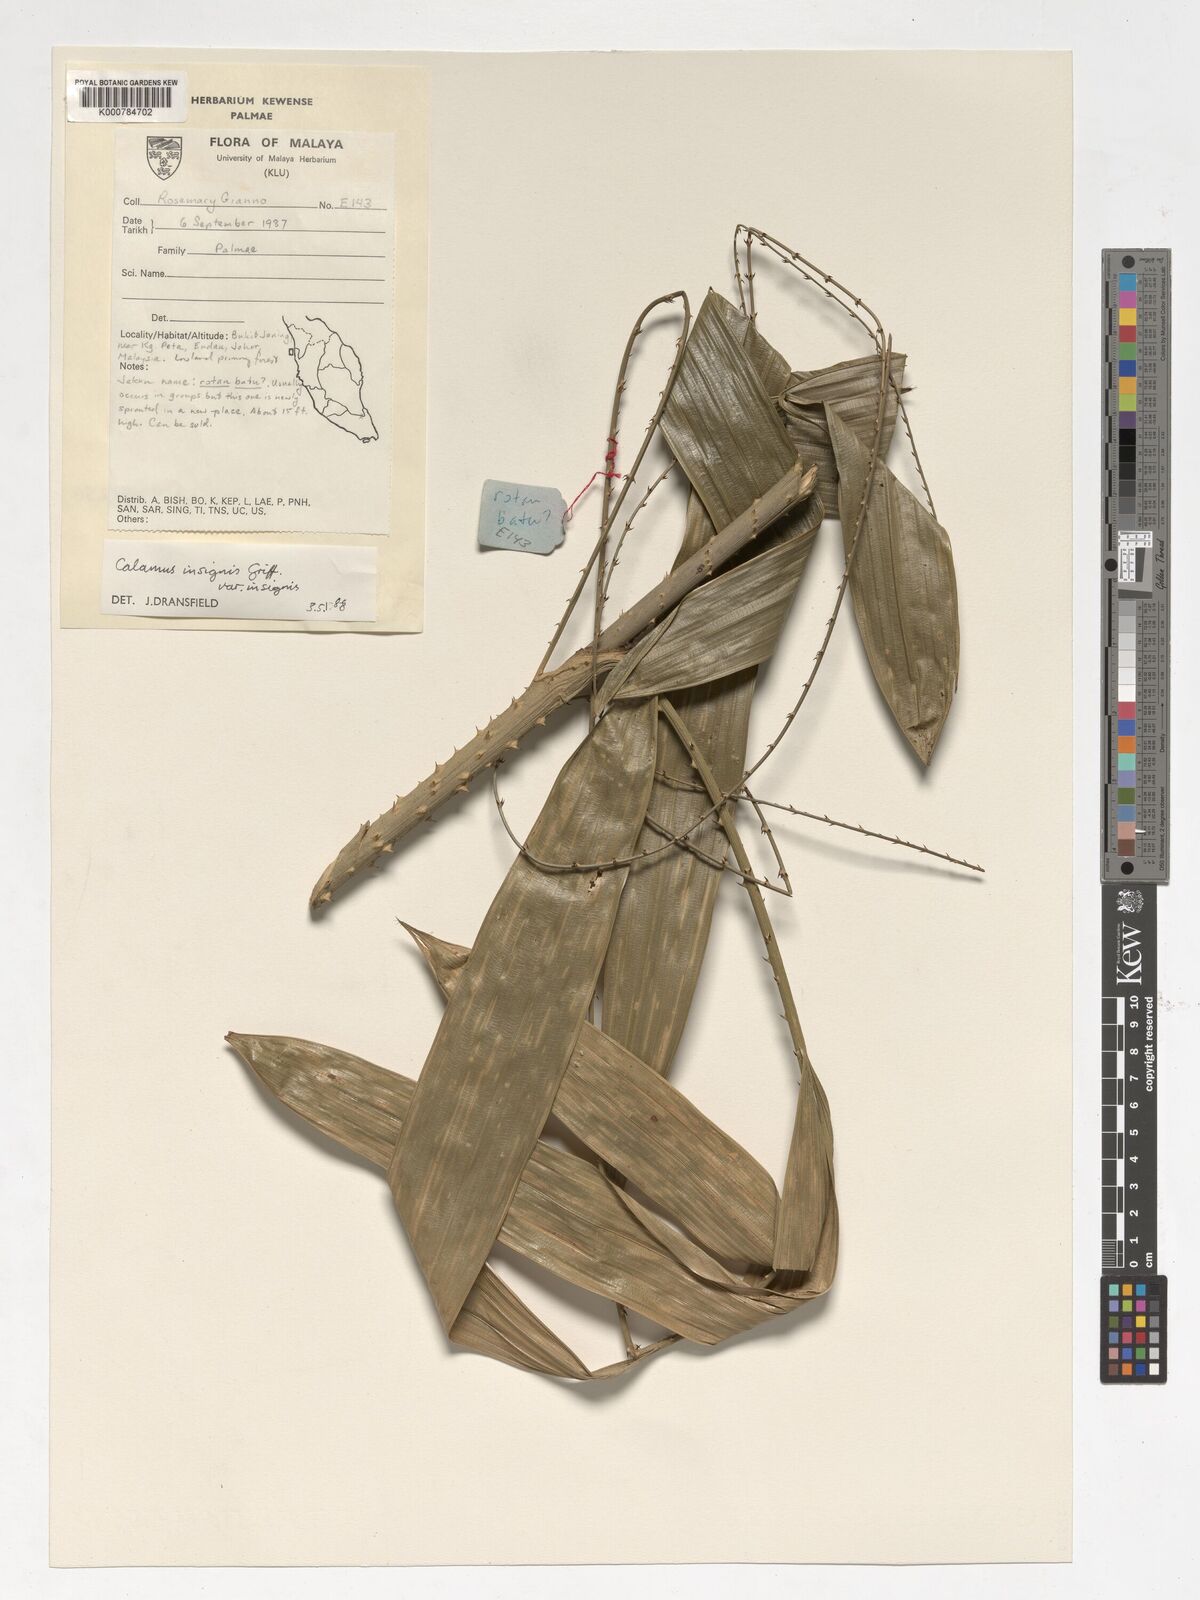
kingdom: Plantae
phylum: Tracheophyta
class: Liliopsida
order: Arecales
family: Arecaceae
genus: Calamus
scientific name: Calamus insignis
